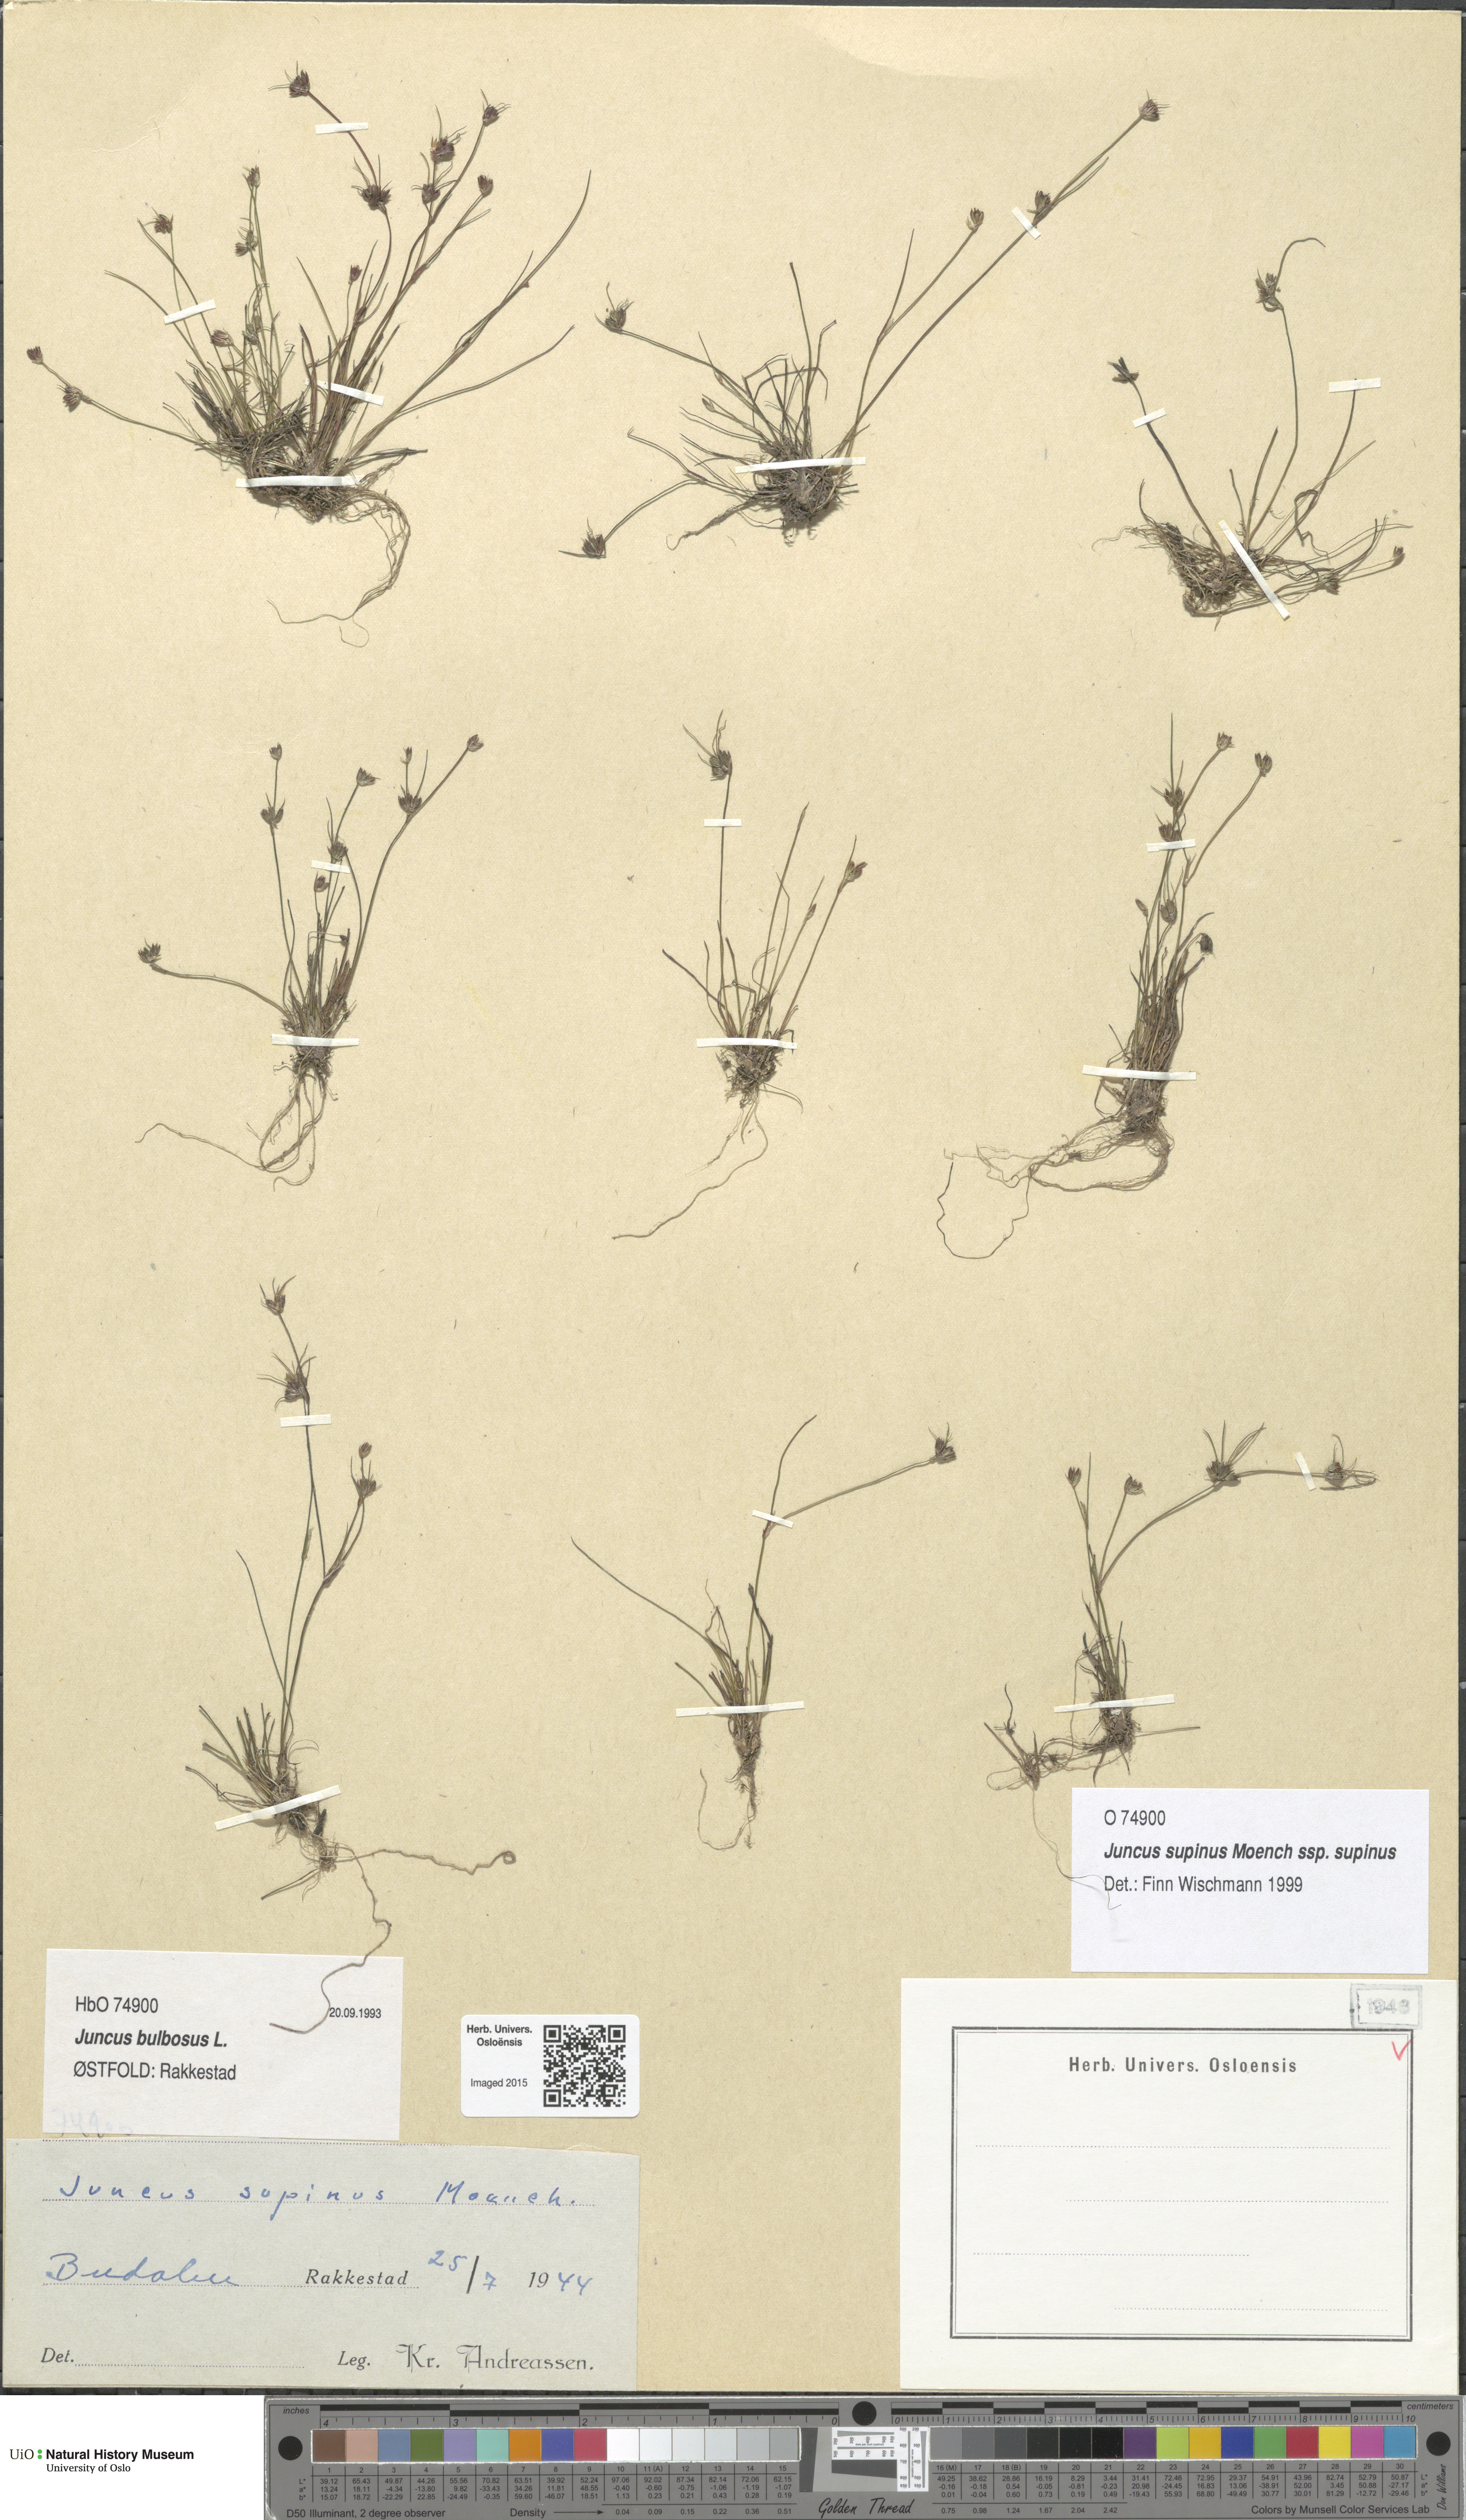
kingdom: Plantae
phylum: Tracheophyta
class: Liliopsida
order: Poales
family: Juncaceae
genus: Juncus
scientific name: Juncus bulbosus
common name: Bulbous rush
